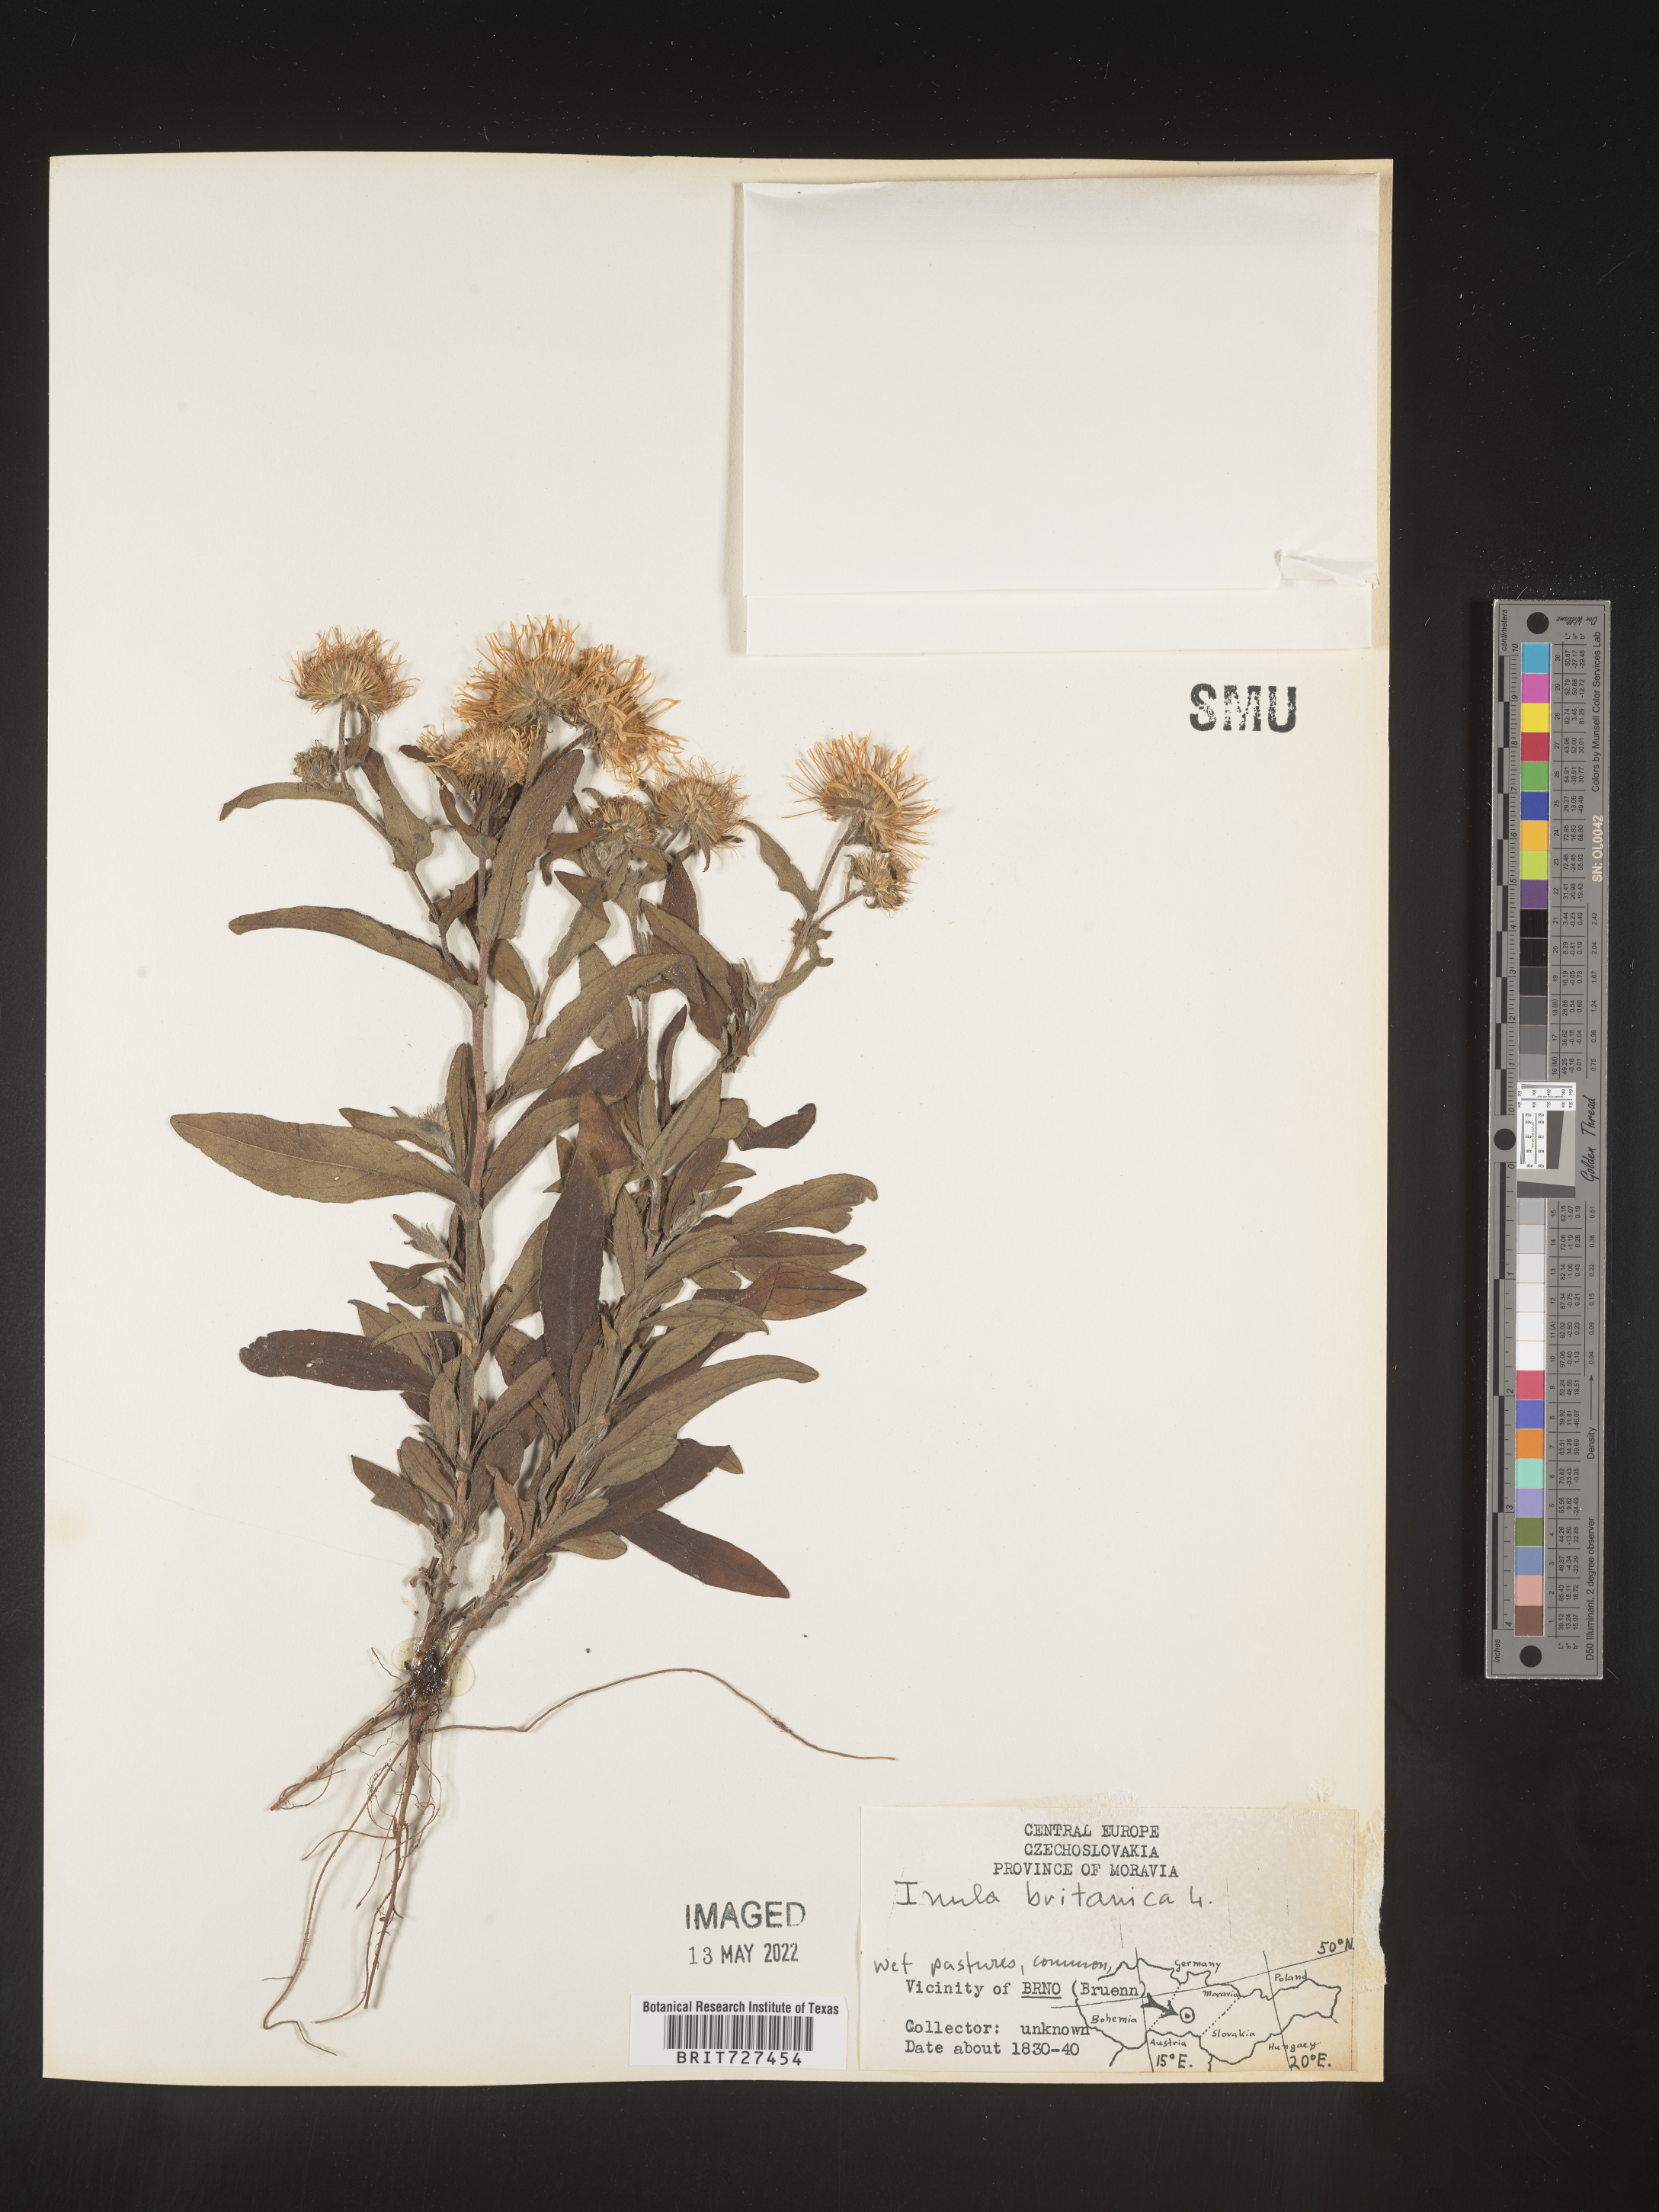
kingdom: Plantae
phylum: Tracheophyta
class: Magnoliopsida
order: Asterales
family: Asteraceae
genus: Inula
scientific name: Inula
